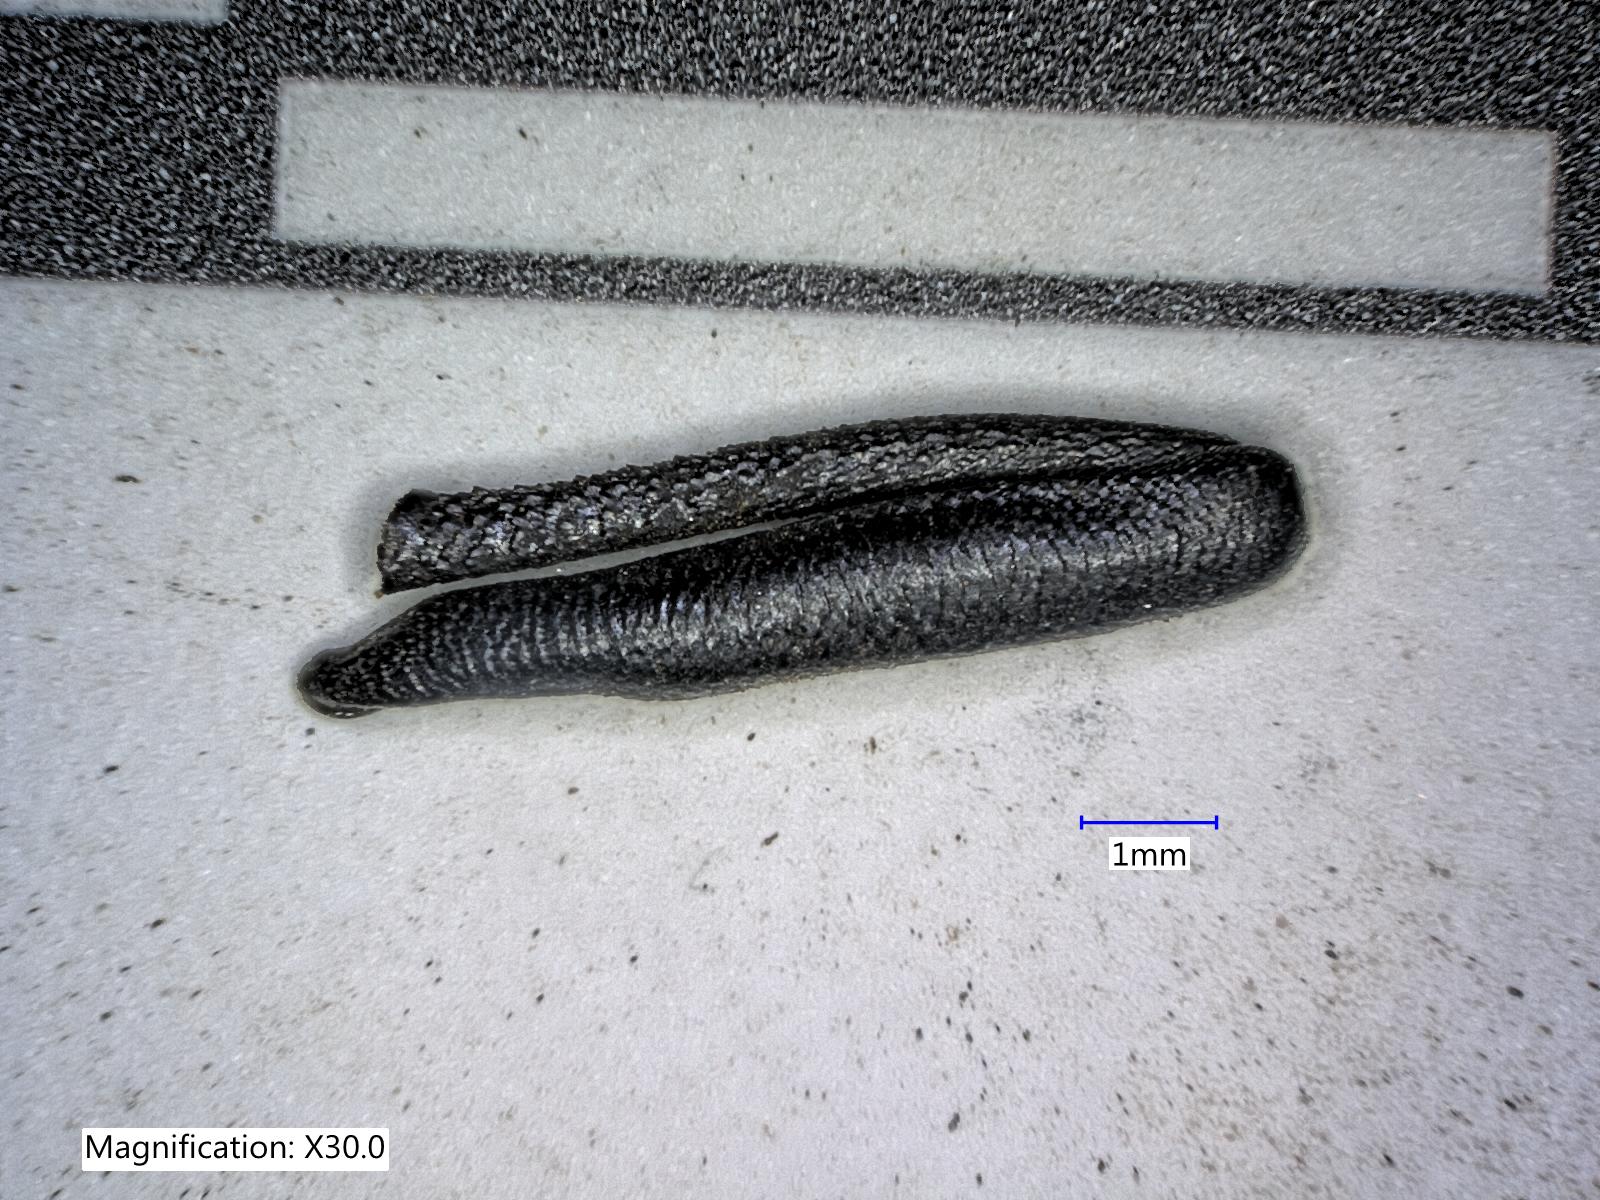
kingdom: Animalia
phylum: Arthropoda
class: Insecta
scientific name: Insecta
